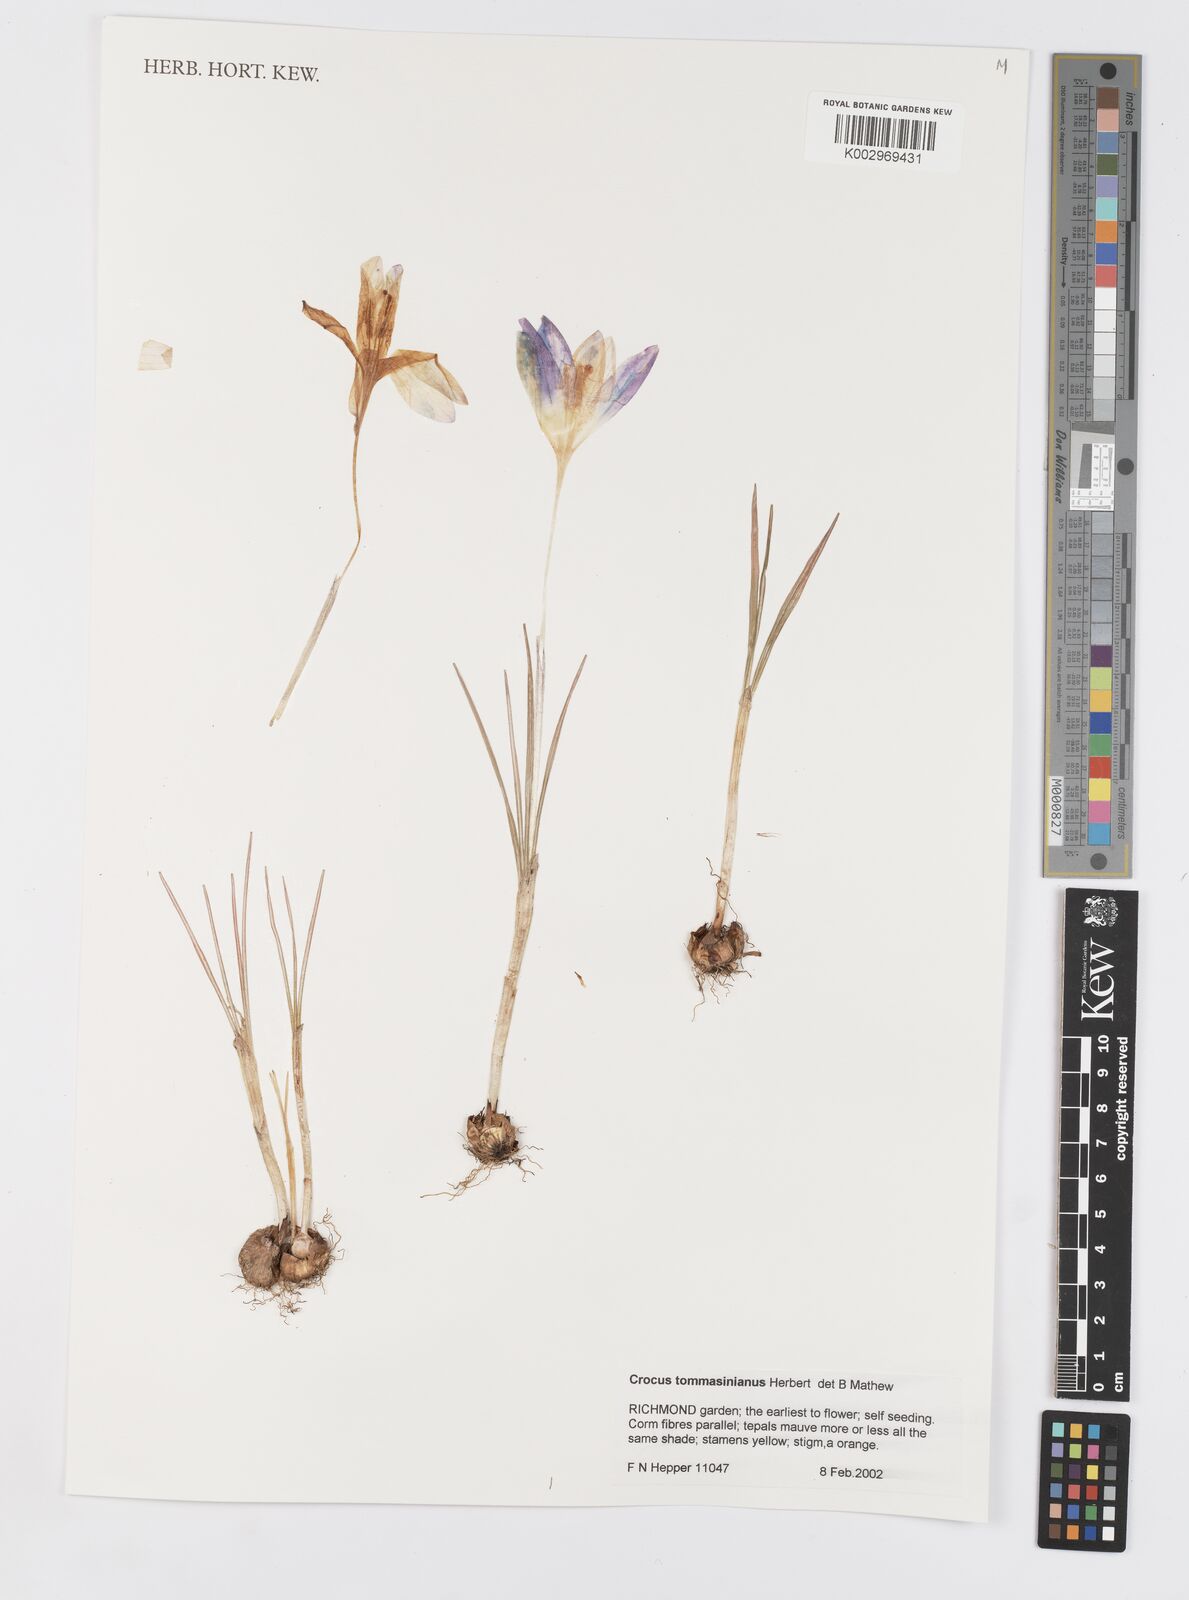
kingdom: Plantae
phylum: Tracheophyta
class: Liliopsida
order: Asparagales
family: Iridaceae
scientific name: Iridaceae
